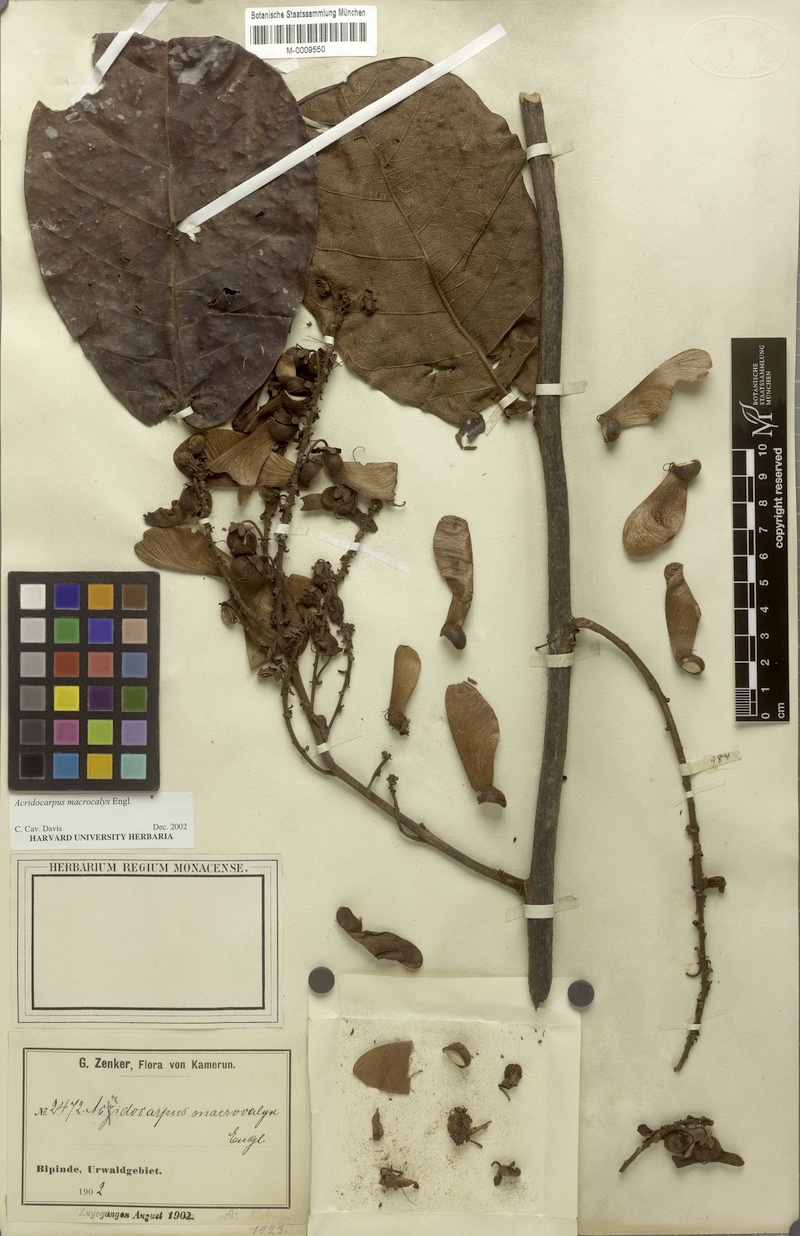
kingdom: Plantae
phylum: Tracheophyta
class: Magnoliopsida
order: Malpighiales
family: Malpighiaceae
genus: Acridocarpus
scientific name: Acridocarpus macrocalyx
